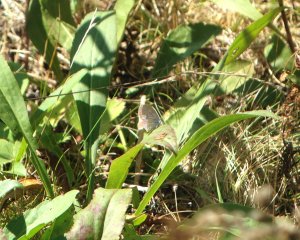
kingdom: Animalia
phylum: Arthropoda
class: Insecta
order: Lepidoptera
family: Lycaenidae
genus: Celastrina
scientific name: Celastrina
